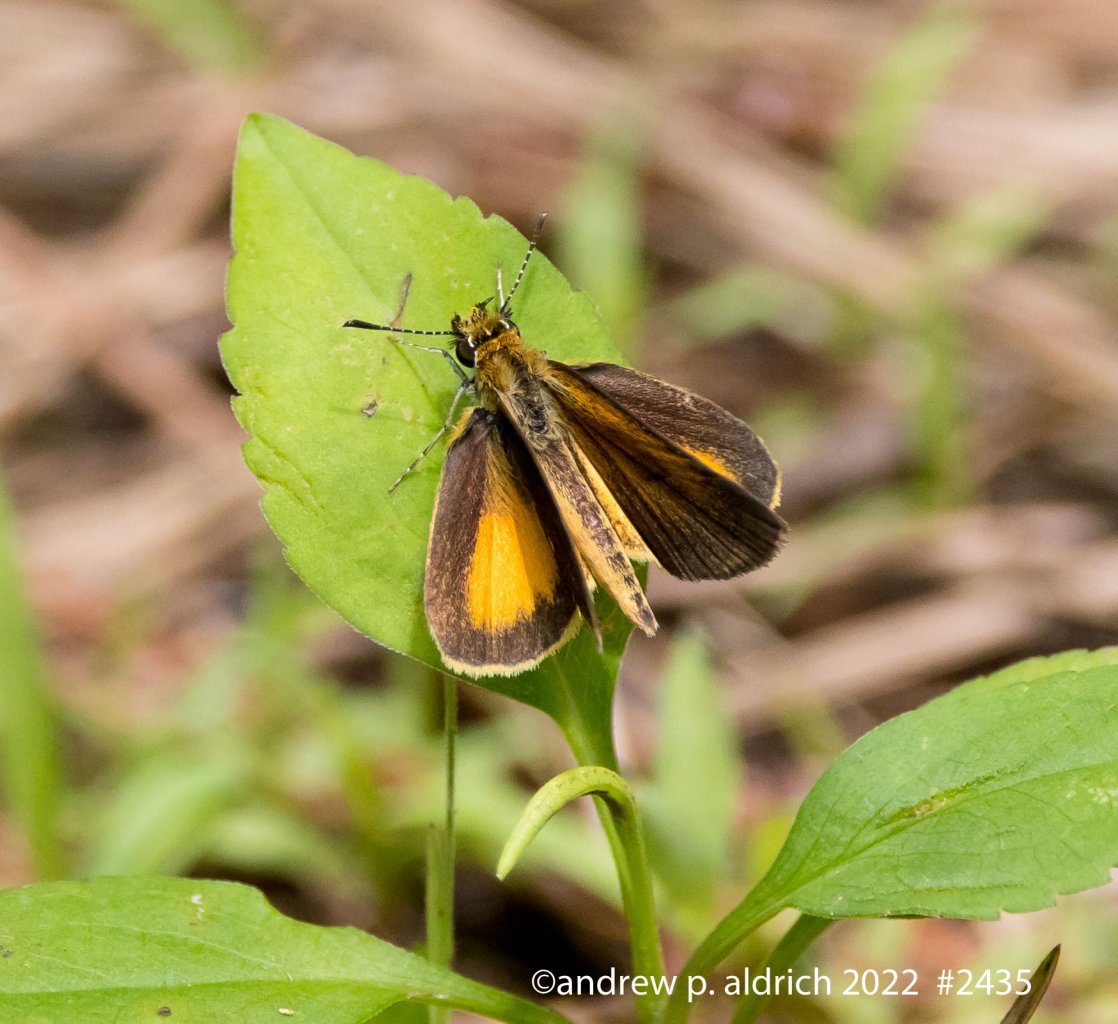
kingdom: Animalia
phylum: Arthropoda
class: Insecta
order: Lepidoptera
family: Hesperiidae
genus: Ancyloxypha
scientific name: Ancyloxypha numitor
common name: Least Skipper
